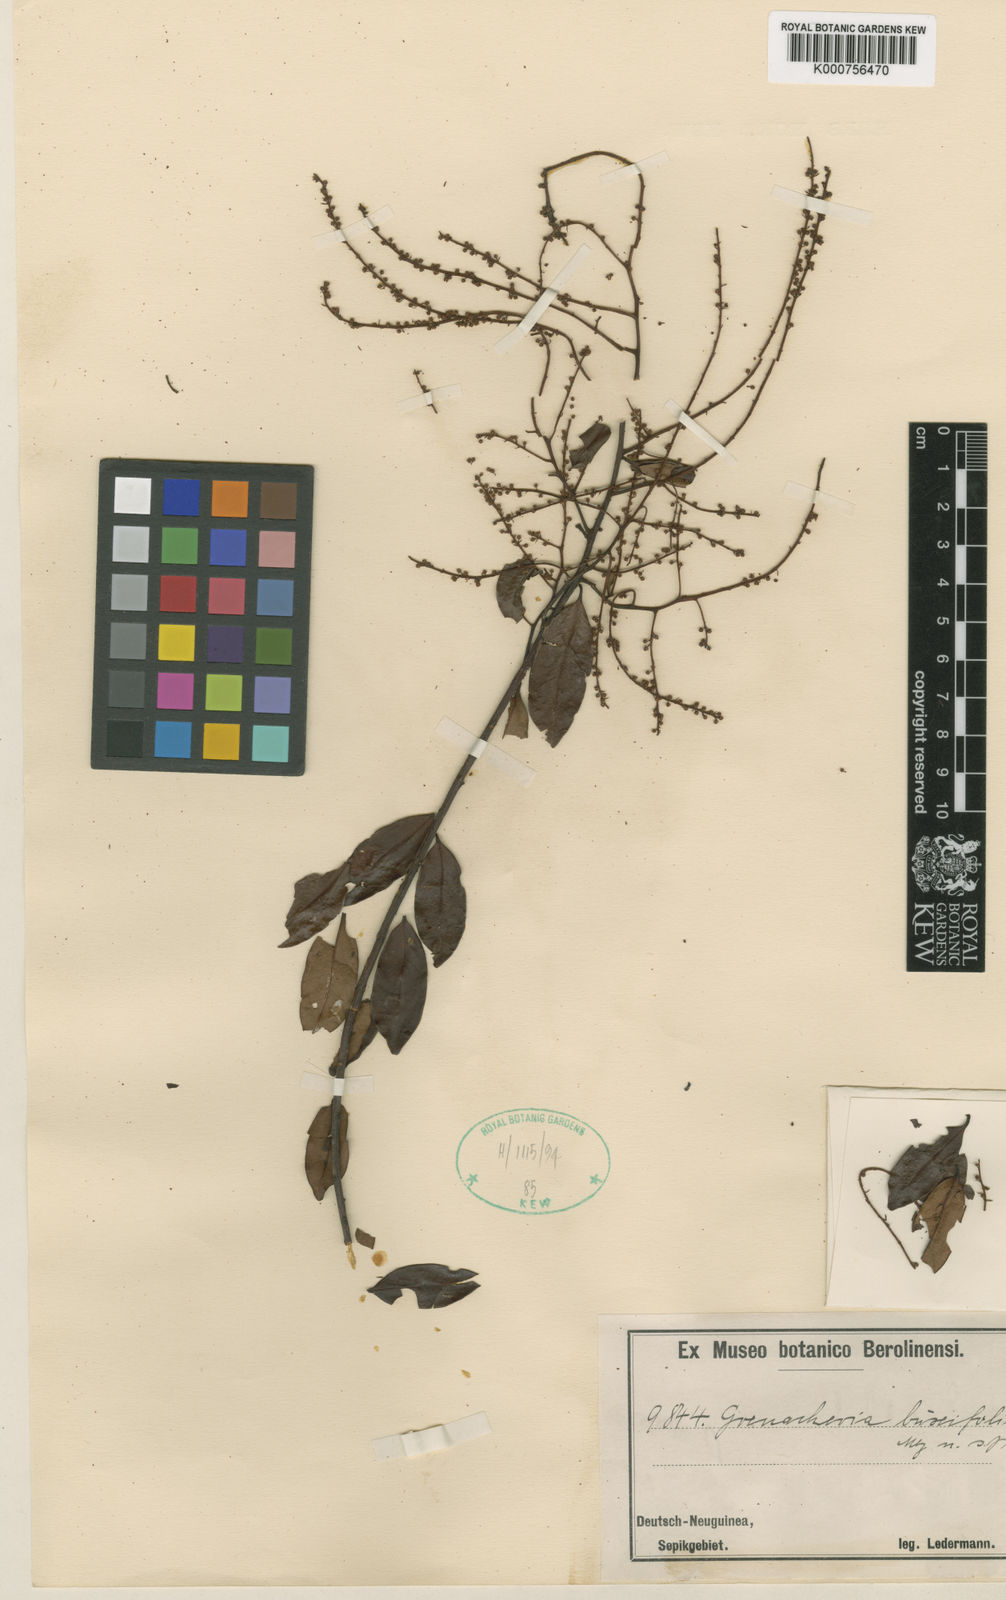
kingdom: Plantae
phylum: Tracheophyta
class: Magnoliopsida
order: Ericales
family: Primulaceae
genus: Grenacheria
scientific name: Grenacheria buxifolia
